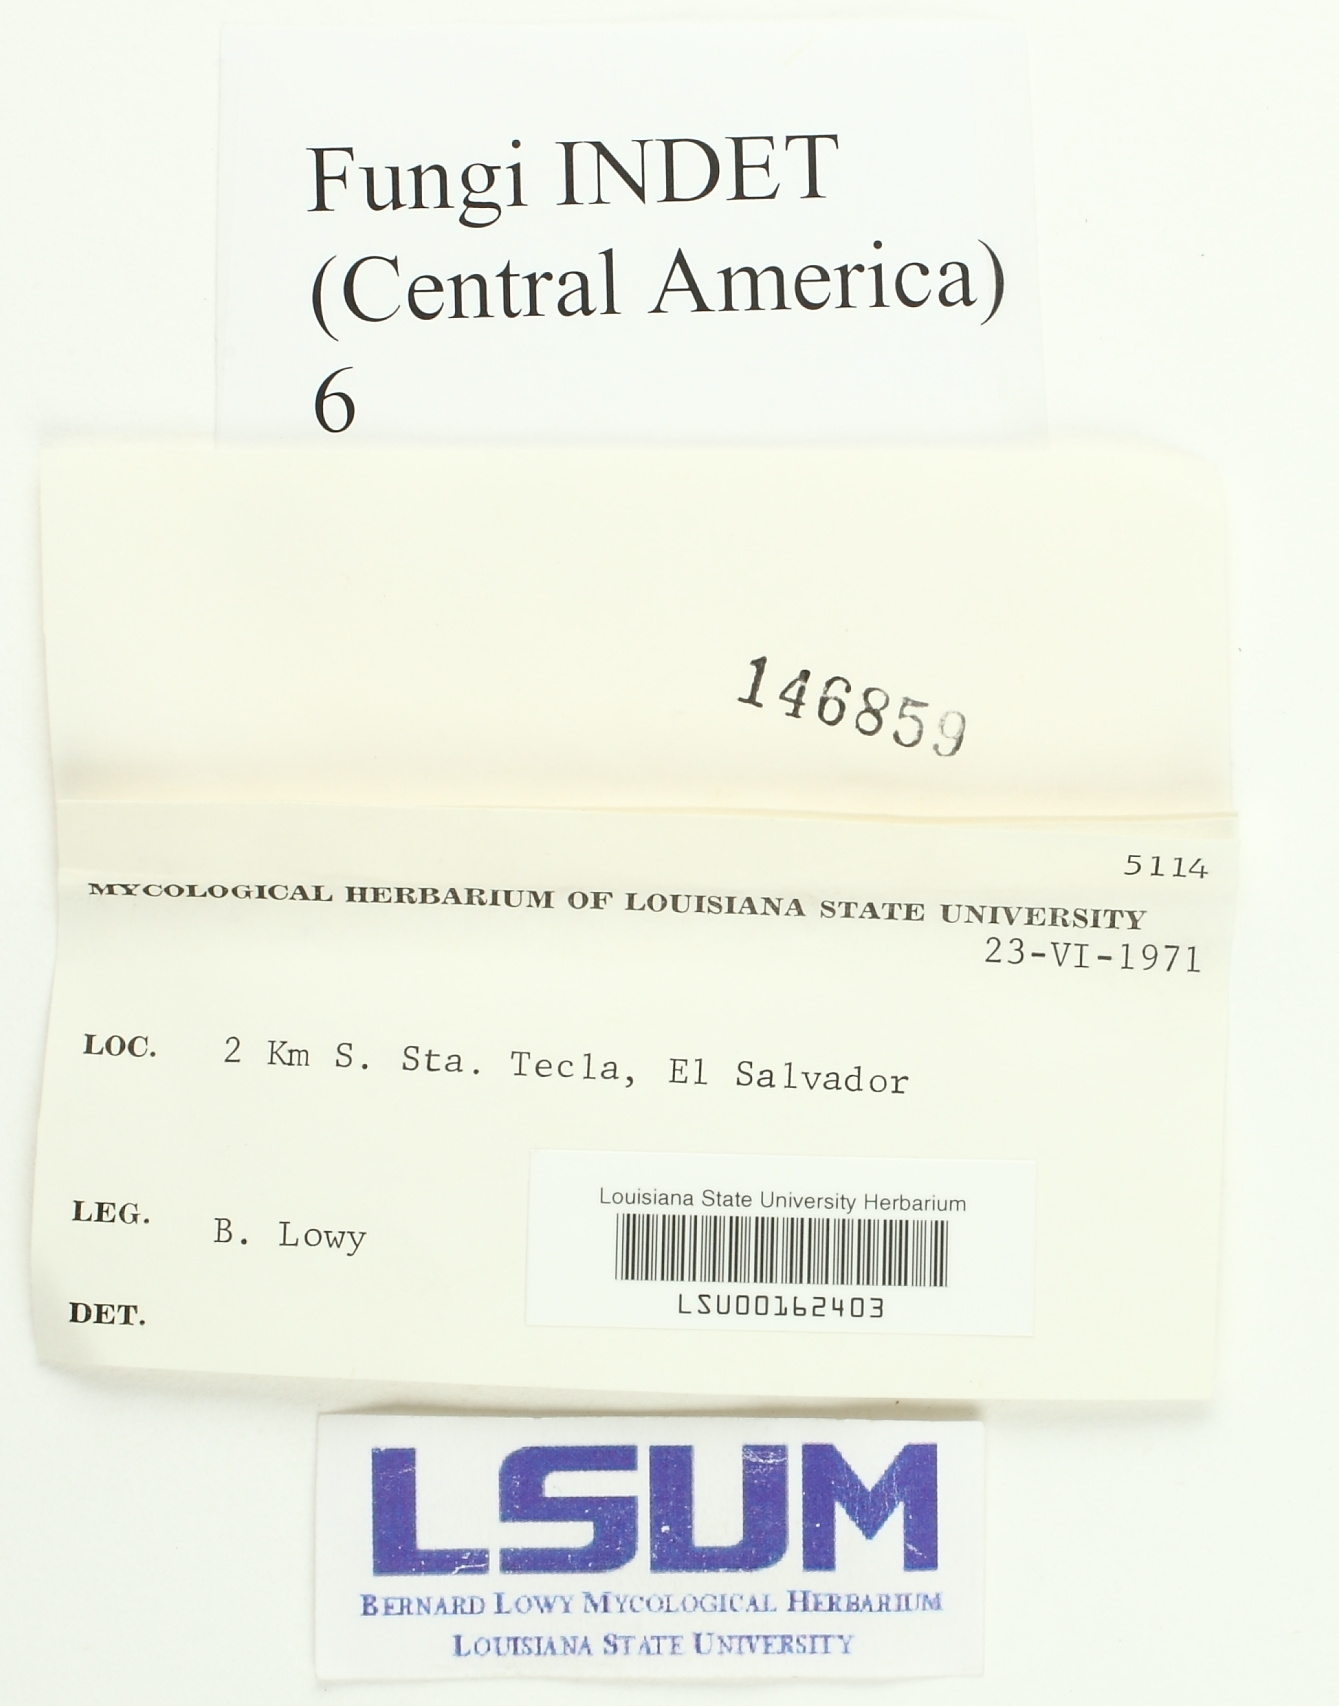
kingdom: Fungi
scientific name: Fungi
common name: Fungi
